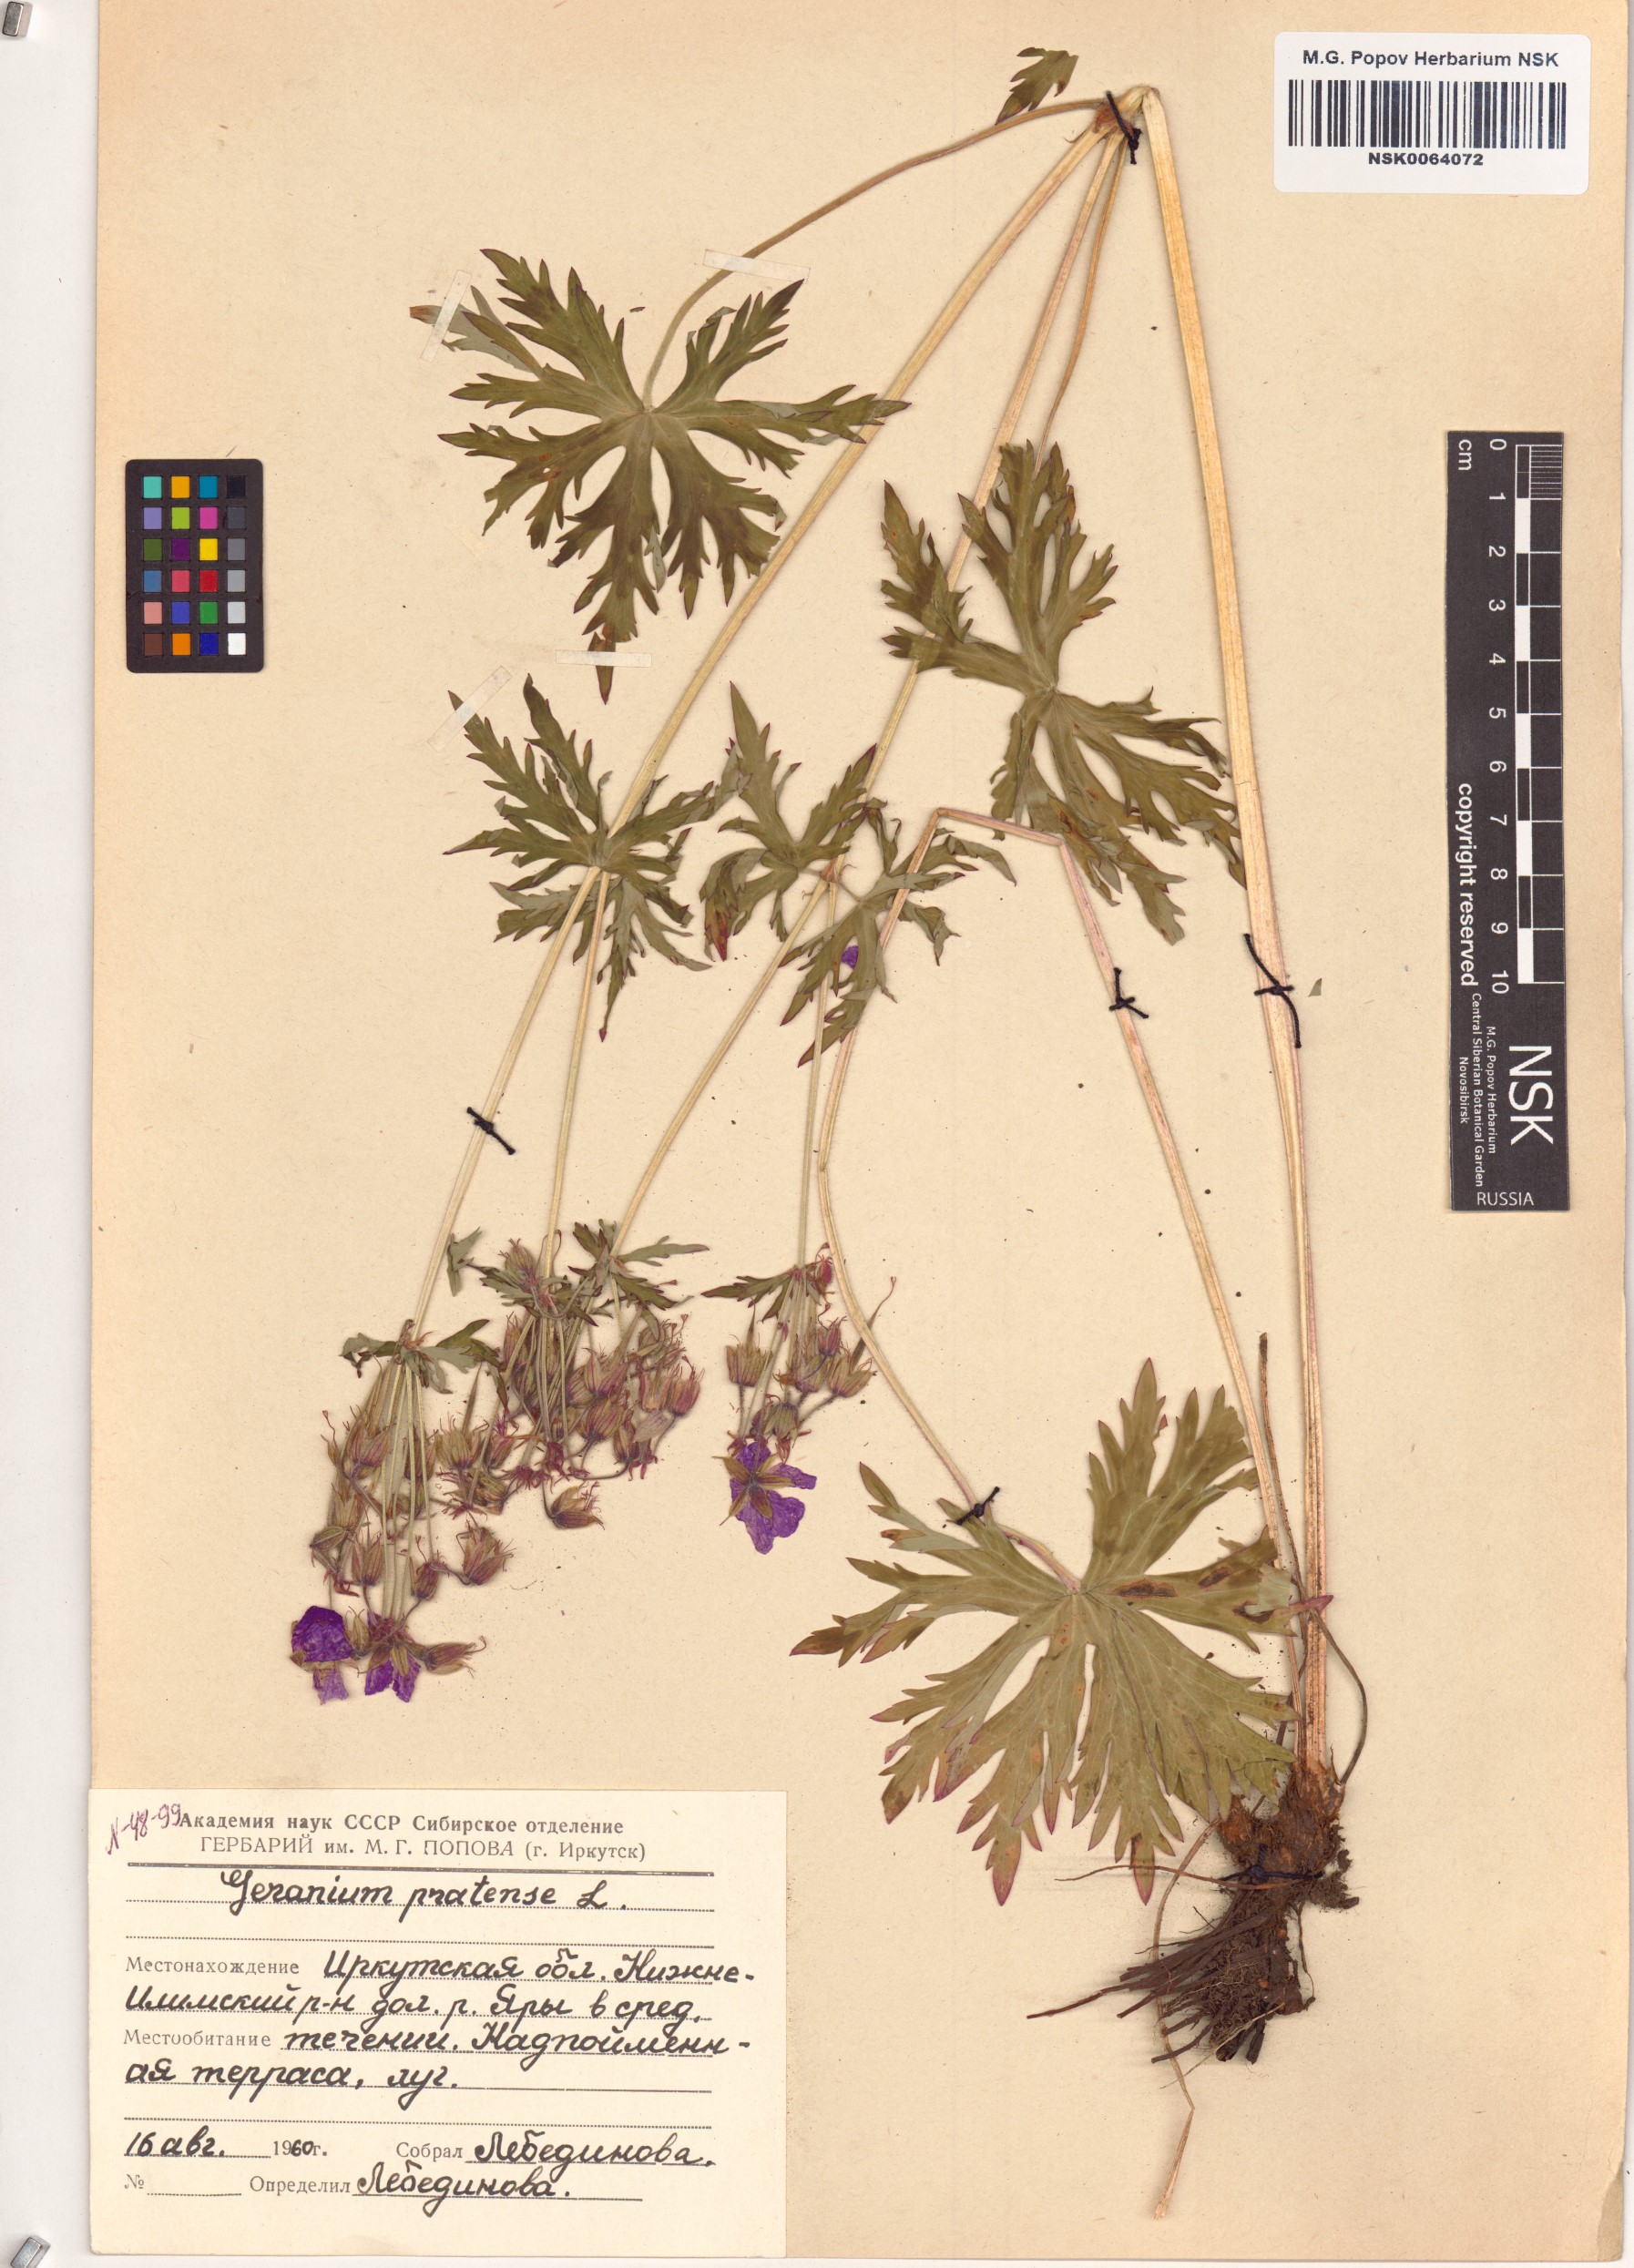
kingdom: Plantae
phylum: Tracheophyta
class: Magnoliopsida
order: Geraniales
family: Geraniaceae
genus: Geranium
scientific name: Geranium pratense
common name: Meadow crane's-bill
